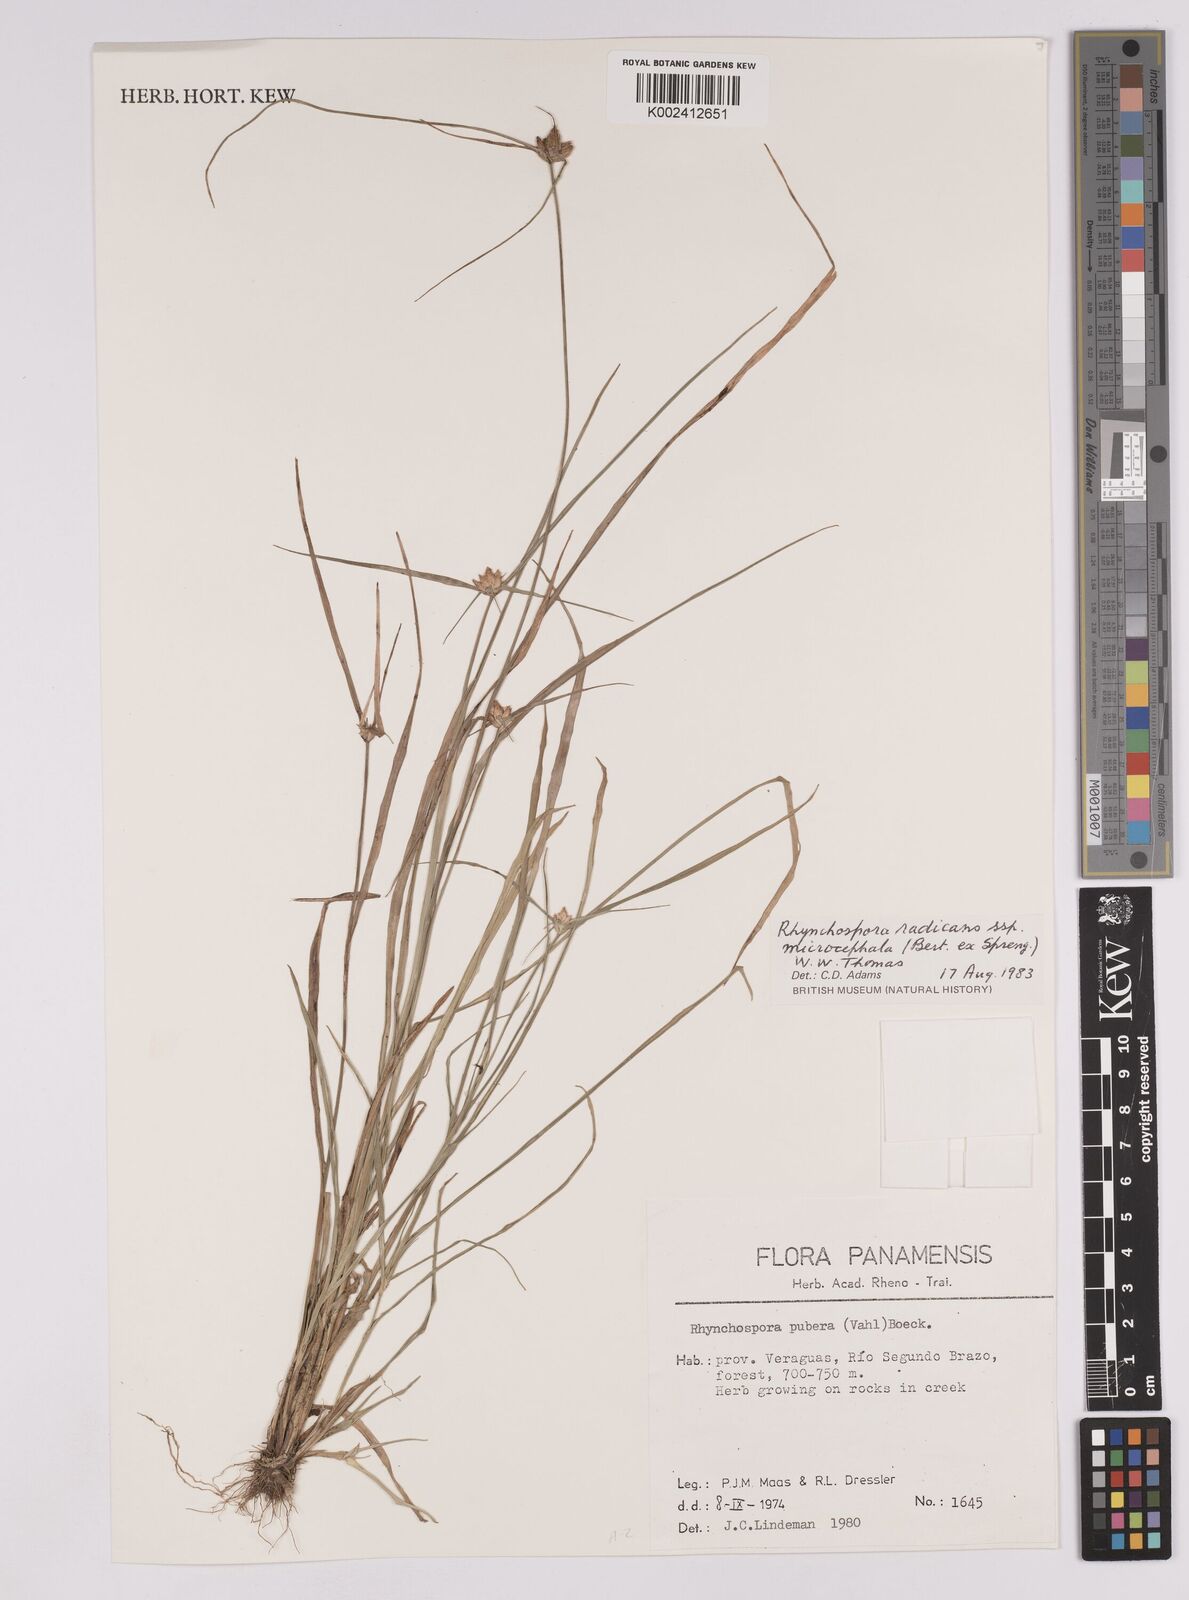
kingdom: Plantae
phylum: Tracheophyta
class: Liliopsida
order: Poales
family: Cyperaceae
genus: Rhynchospora
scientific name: Rhynchospora radicans
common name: Tropical whitetop
